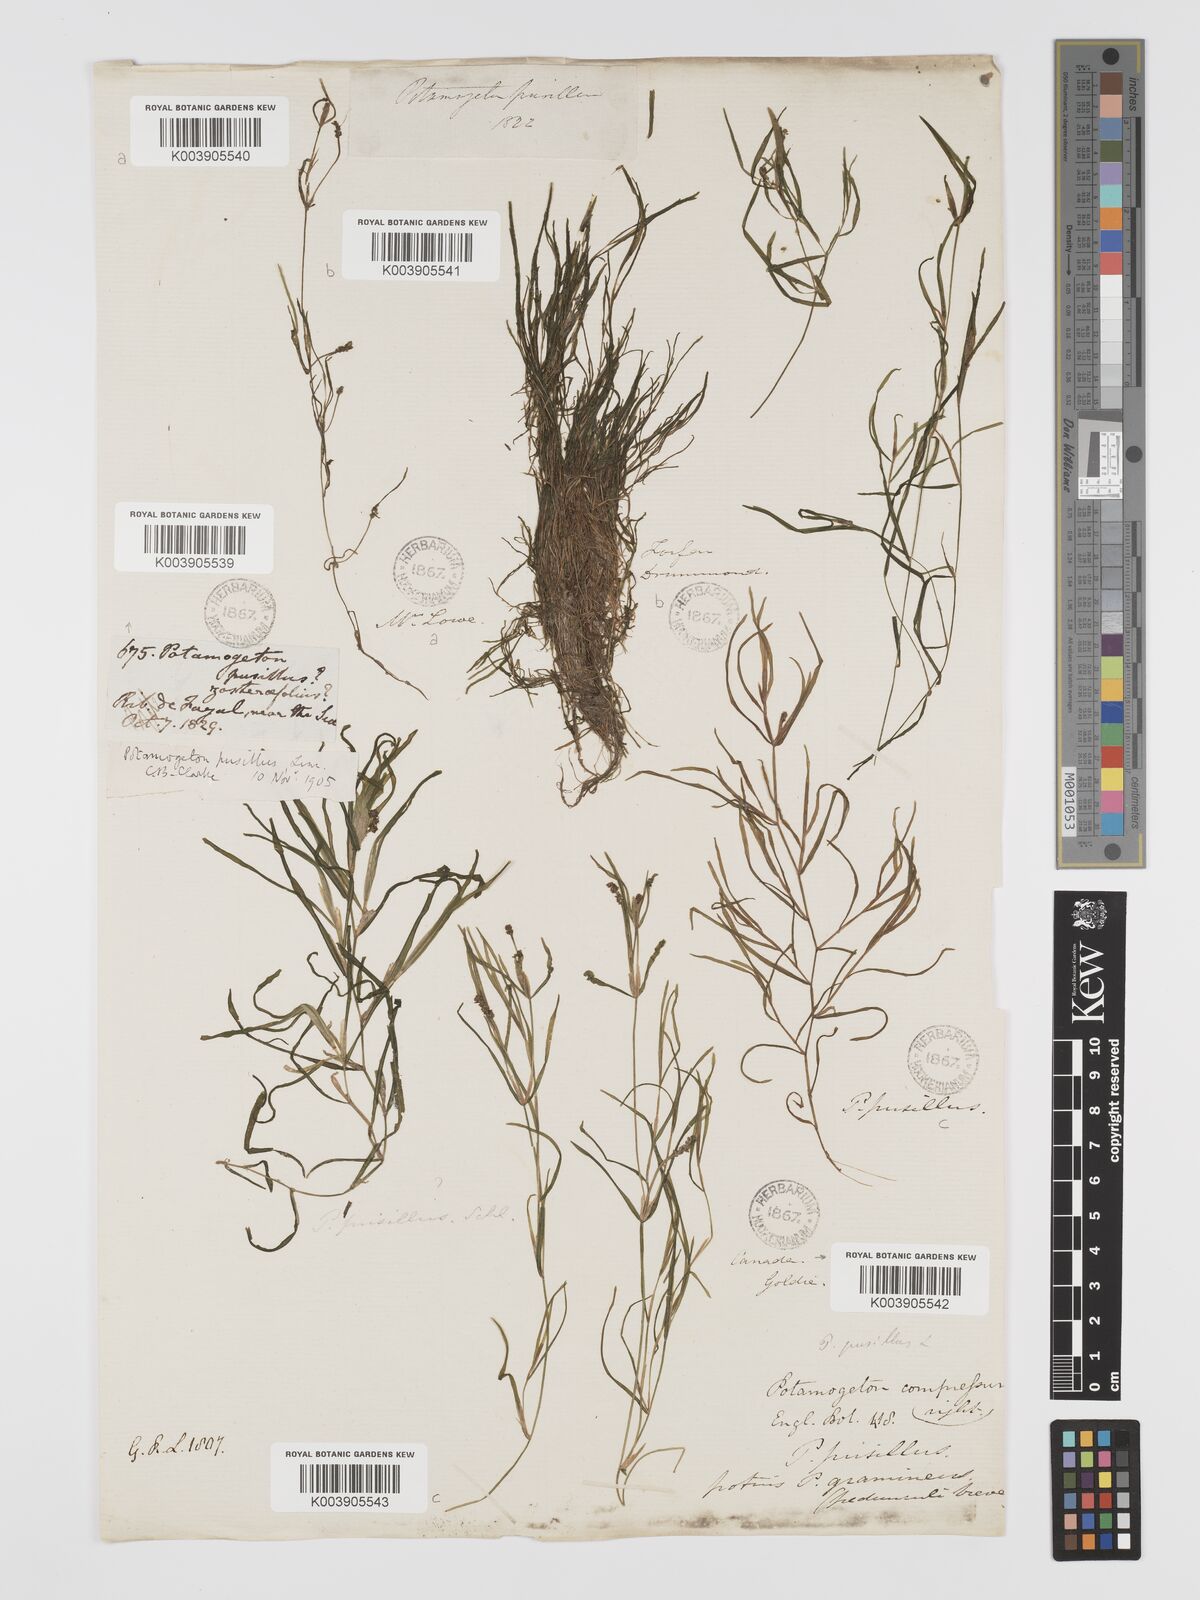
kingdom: Plantae
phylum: Tracheophyta
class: Liliopsida
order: Alismatales
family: Potamogetonaceae
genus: Potamogeton
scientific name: Potamogeton pusillus
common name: Lesser pondweed
